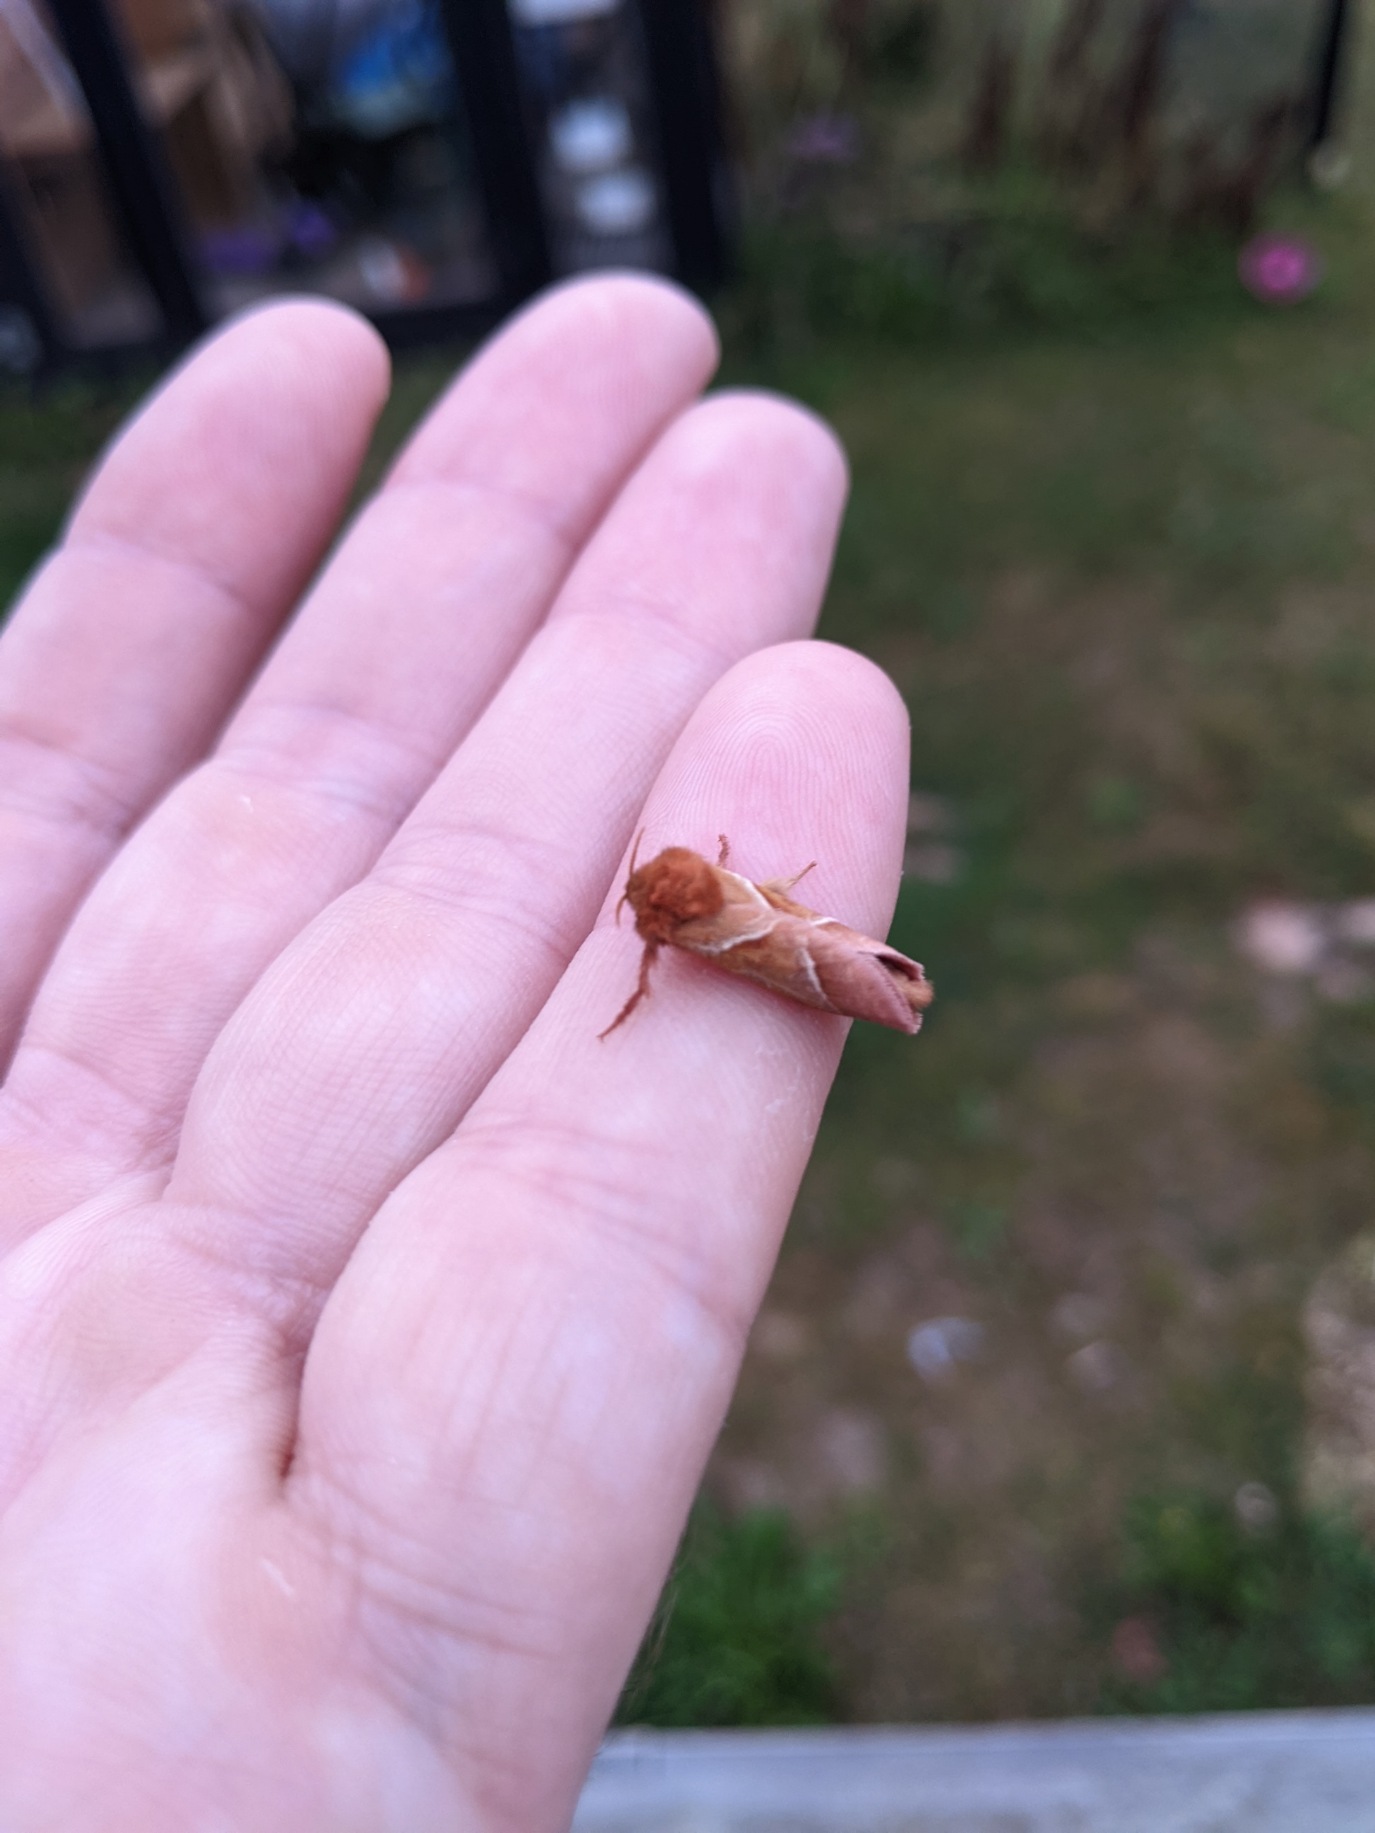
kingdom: Animalia
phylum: Arthropoda
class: Insecta
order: Lepidoptera
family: Hepialidae
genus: Triodia
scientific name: Triodia sylvina
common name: Skræpperodæder
